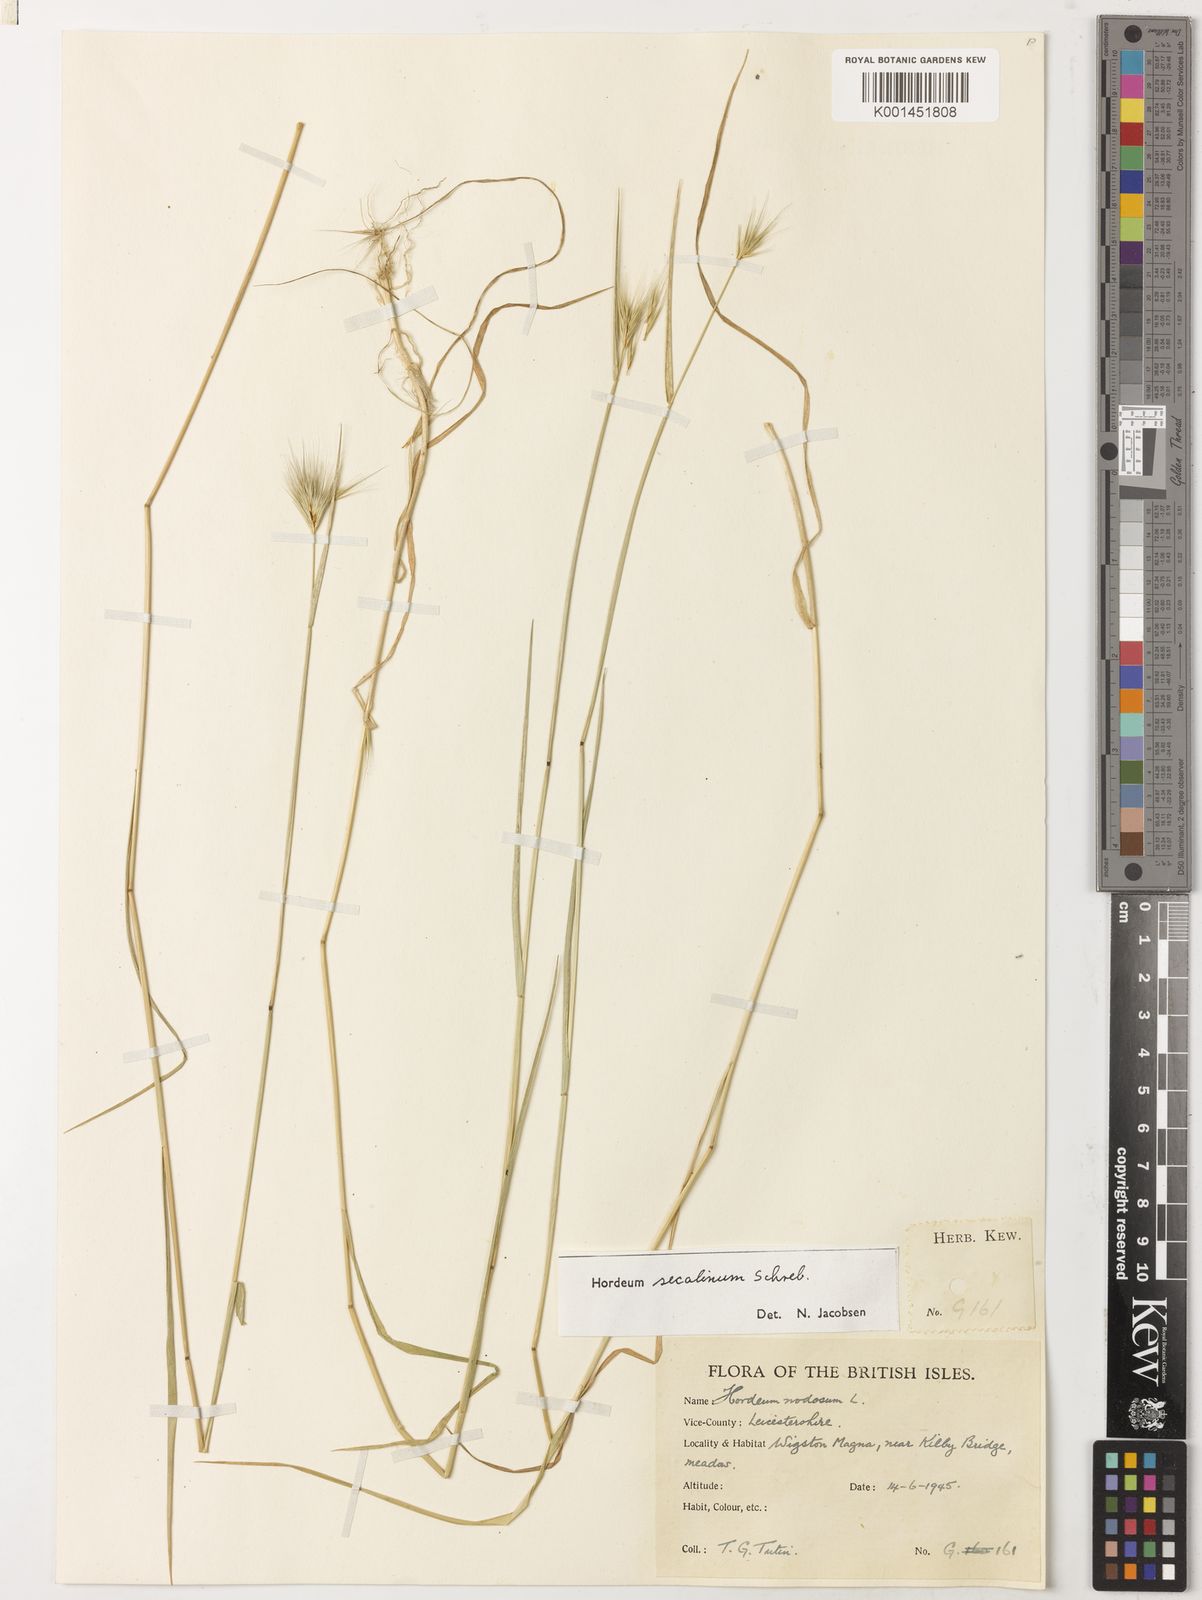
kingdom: Plantae
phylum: Tracheophyta
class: Liliopsida
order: Poales
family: Poaceae
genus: Hordeum
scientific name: Hordeum secalinum
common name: Meadow barley
